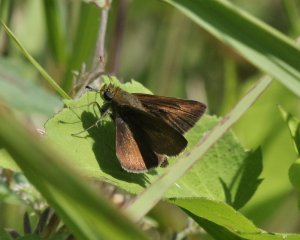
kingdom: Animalia
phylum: Arthropoda
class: Insecta
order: Lepidoptera
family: Hesperiidae
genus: Euphyes
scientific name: Euphyes vestris
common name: Dun Skipper
